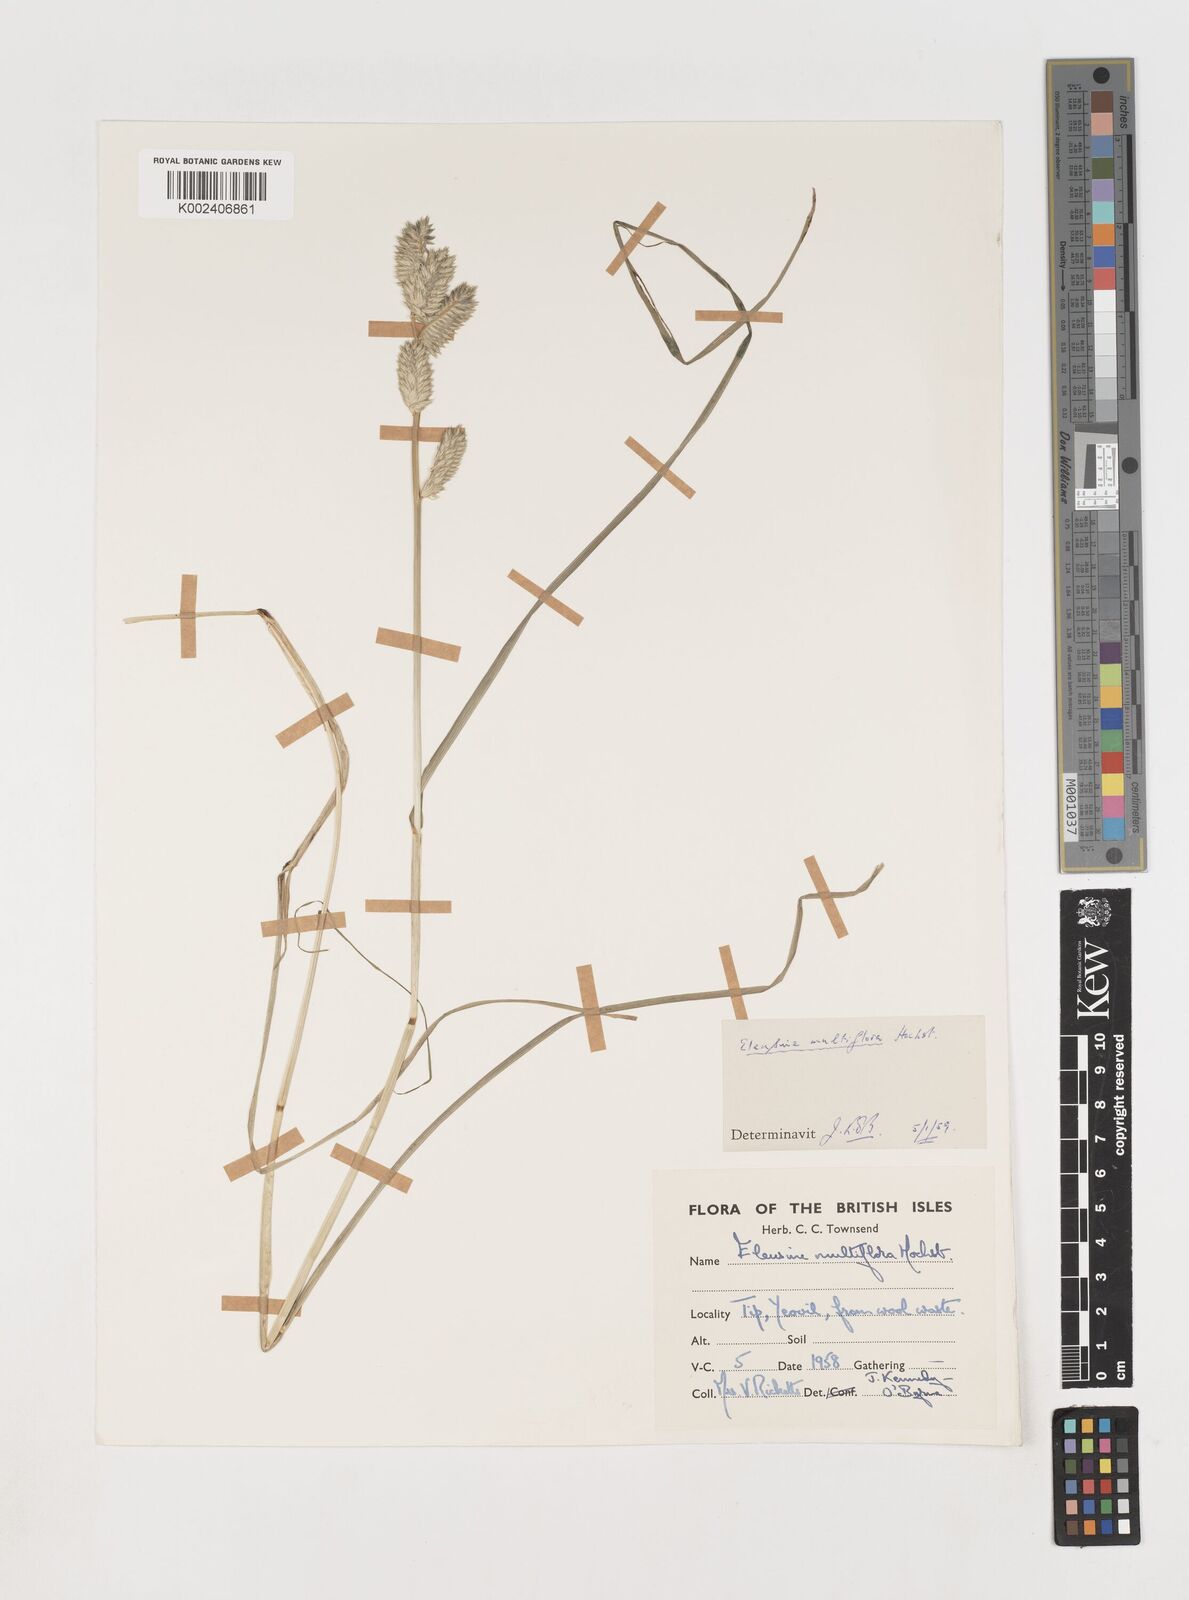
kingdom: Plantae
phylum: Tracheophyta
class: Liliopsida
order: Poales
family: Poaceae
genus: Eleusine
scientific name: Eleusine multiflora
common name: Fat-spiked yard-grass
